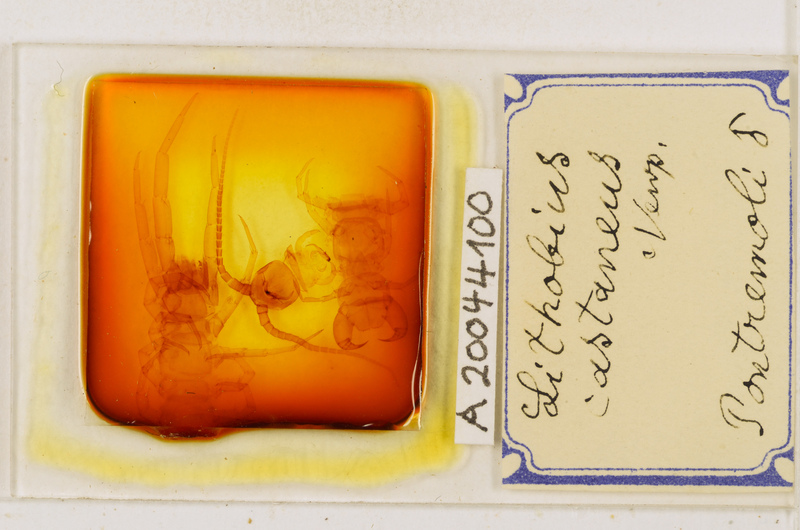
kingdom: Animalia
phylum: Arthropoda
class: Chilopoda
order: Lithobiomorpha
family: Lithobiidae
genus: Lithobius
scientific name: Lithobius castaneus
